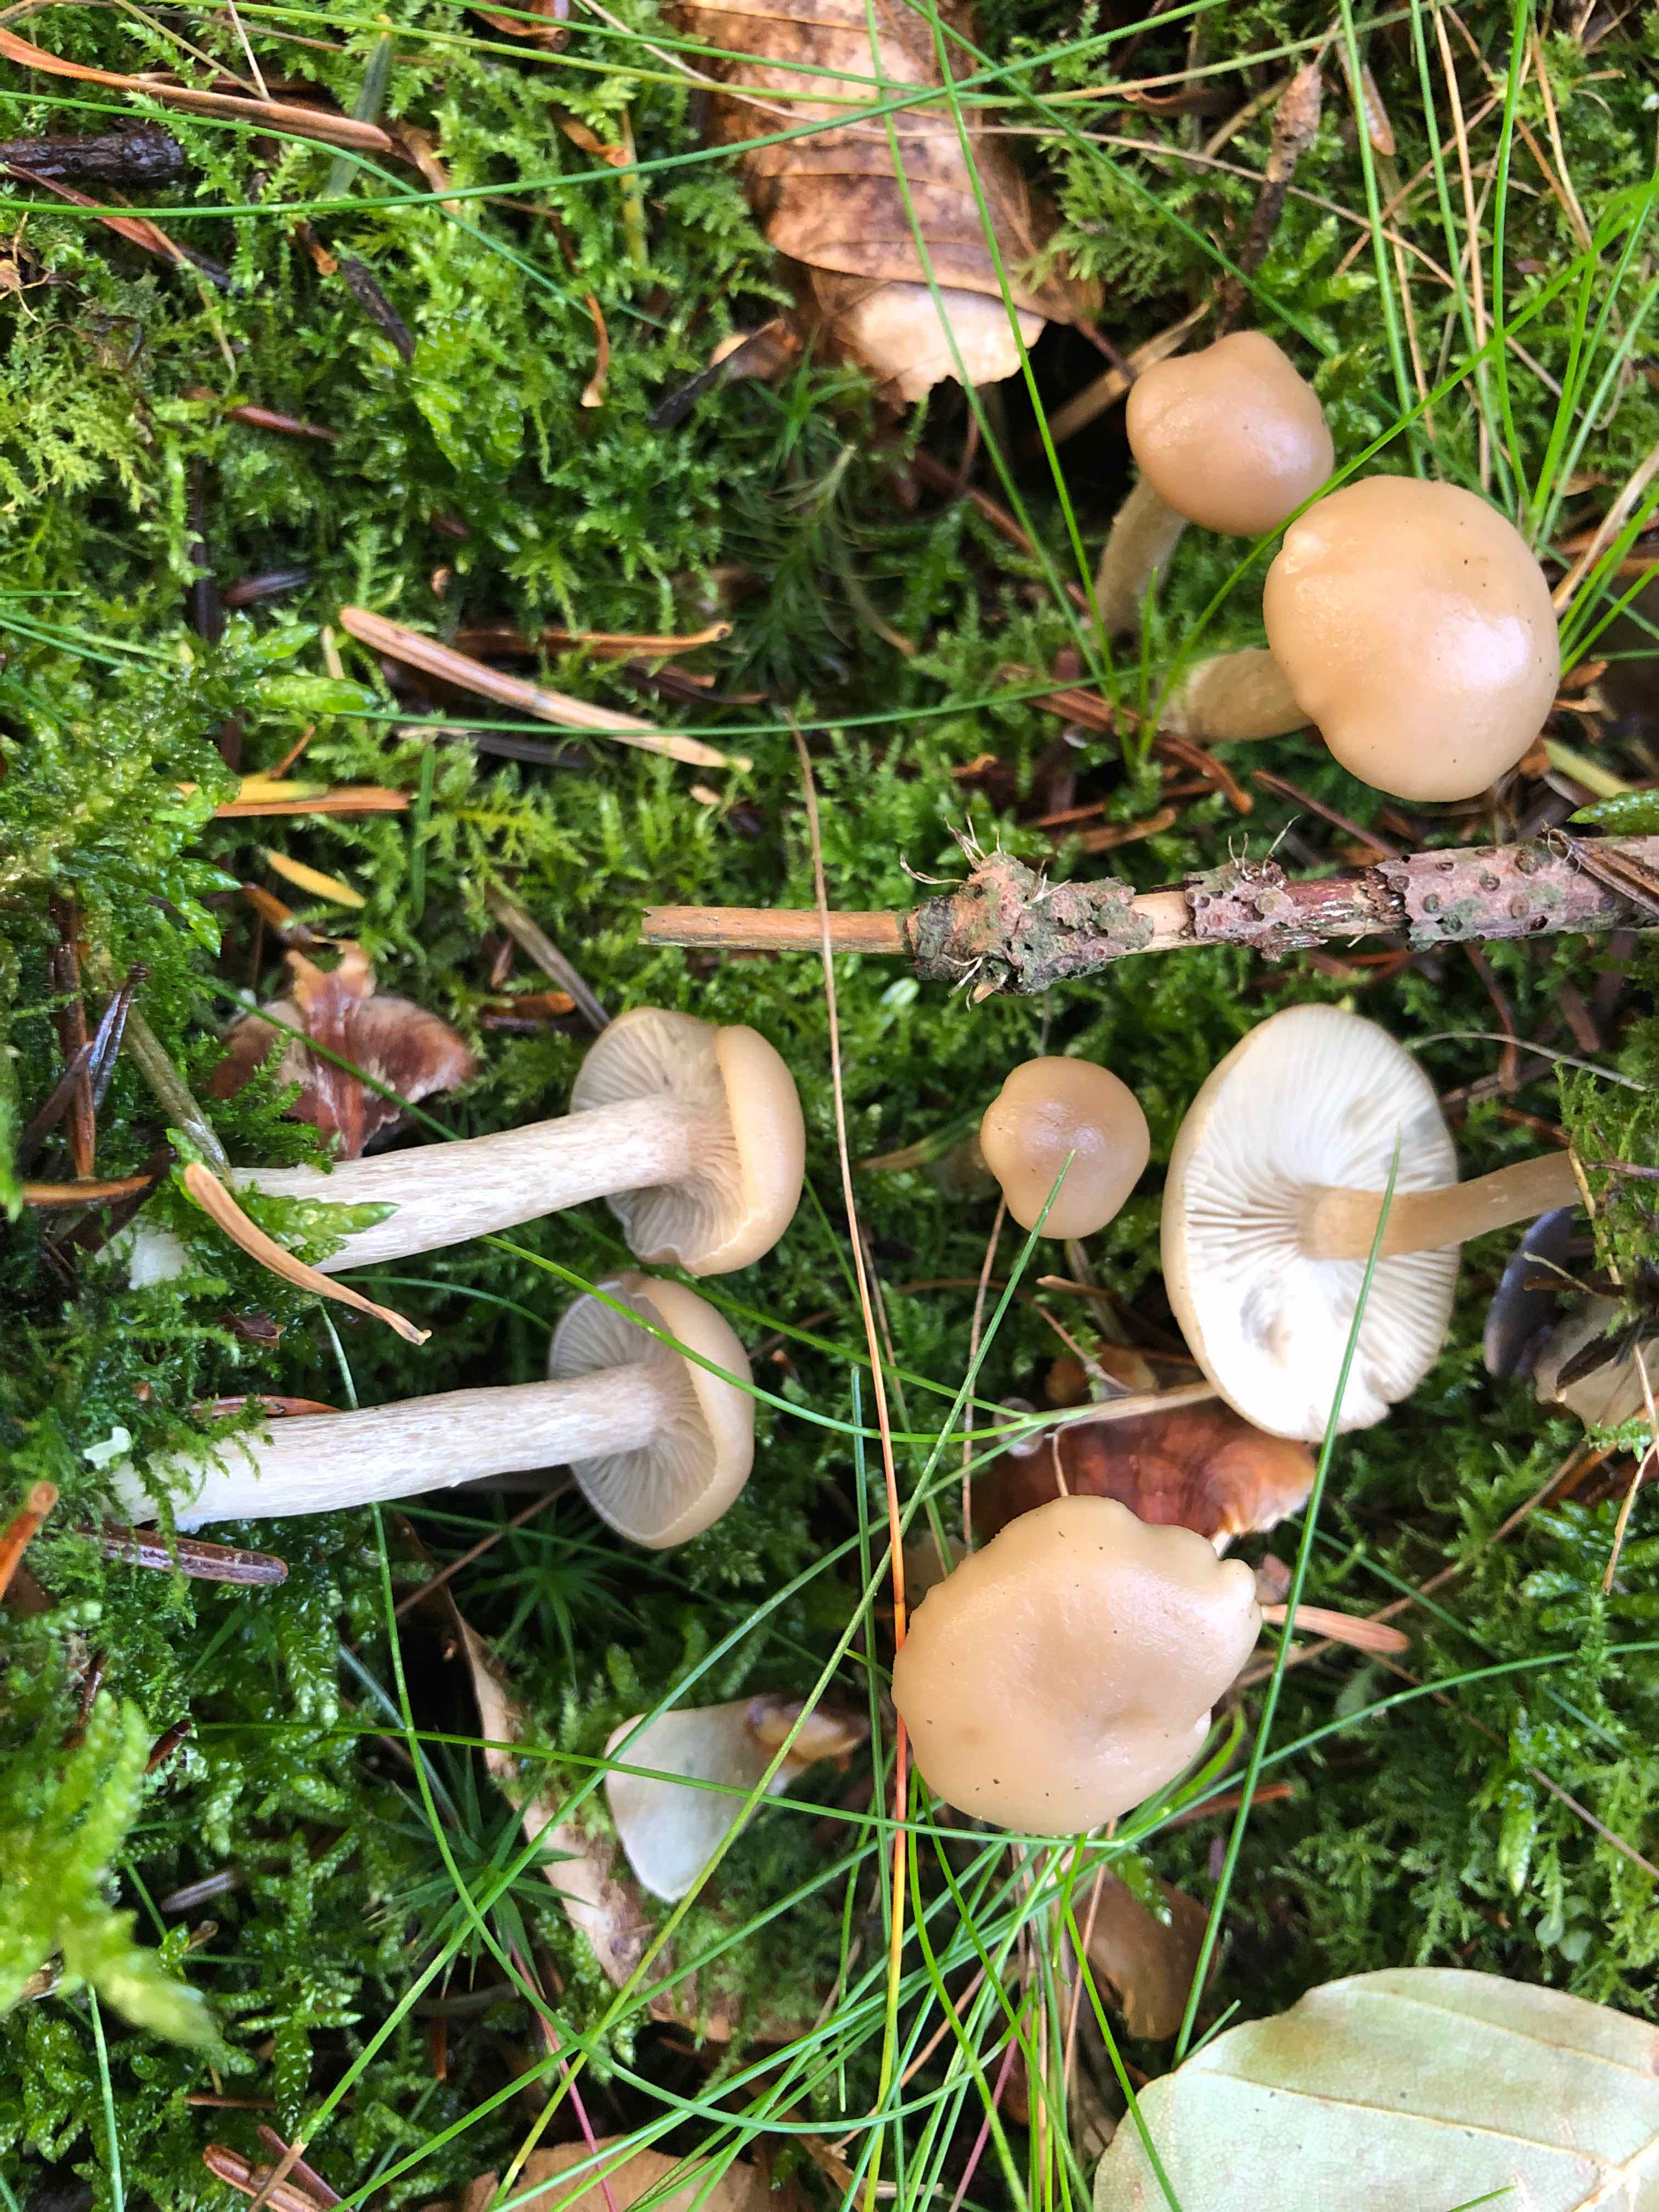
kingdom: Fungi
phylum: Basidiomycota
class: Agaricomycetes
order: Agaricales
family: Tricholomataceae
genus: Clitocybe
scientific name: Clitocybe fragrans
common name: vellugtende tragthat
